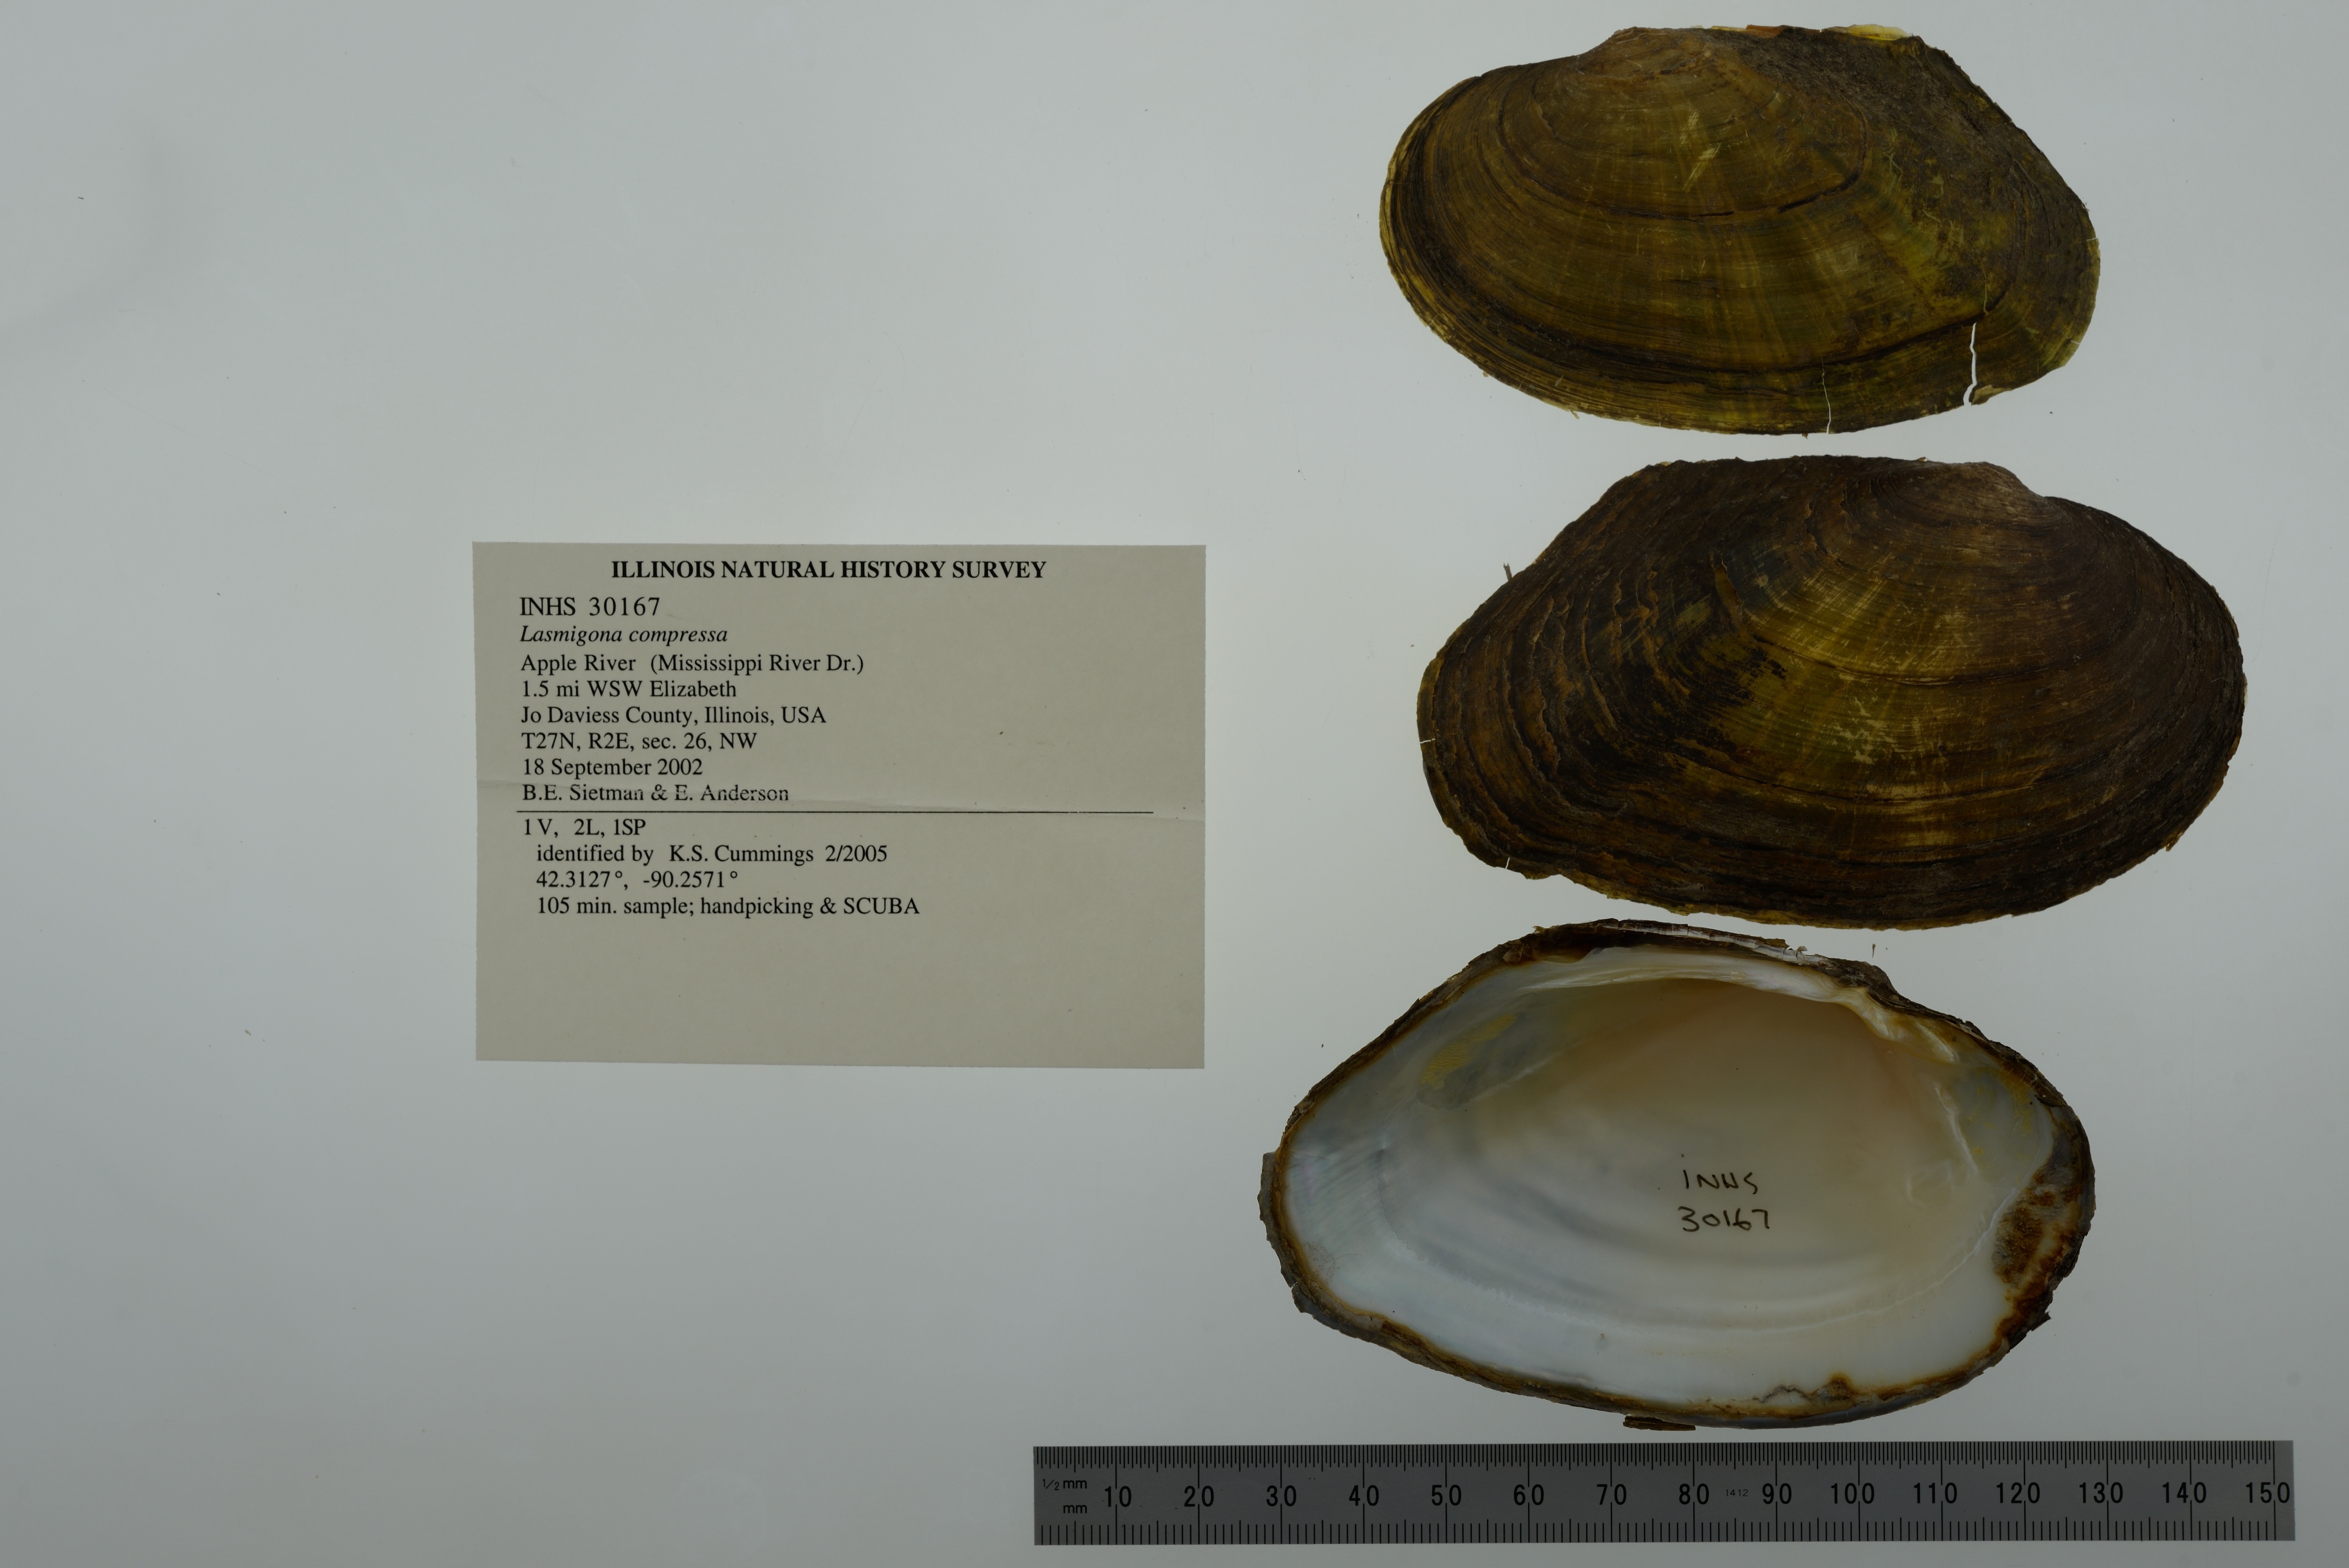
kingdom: Animalia
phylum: Mollusca
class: Bivalvia
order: Unionida
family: Unionidae
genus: Lasmigona
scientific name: Lasmigona compressa
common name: Creek heelsplitter
